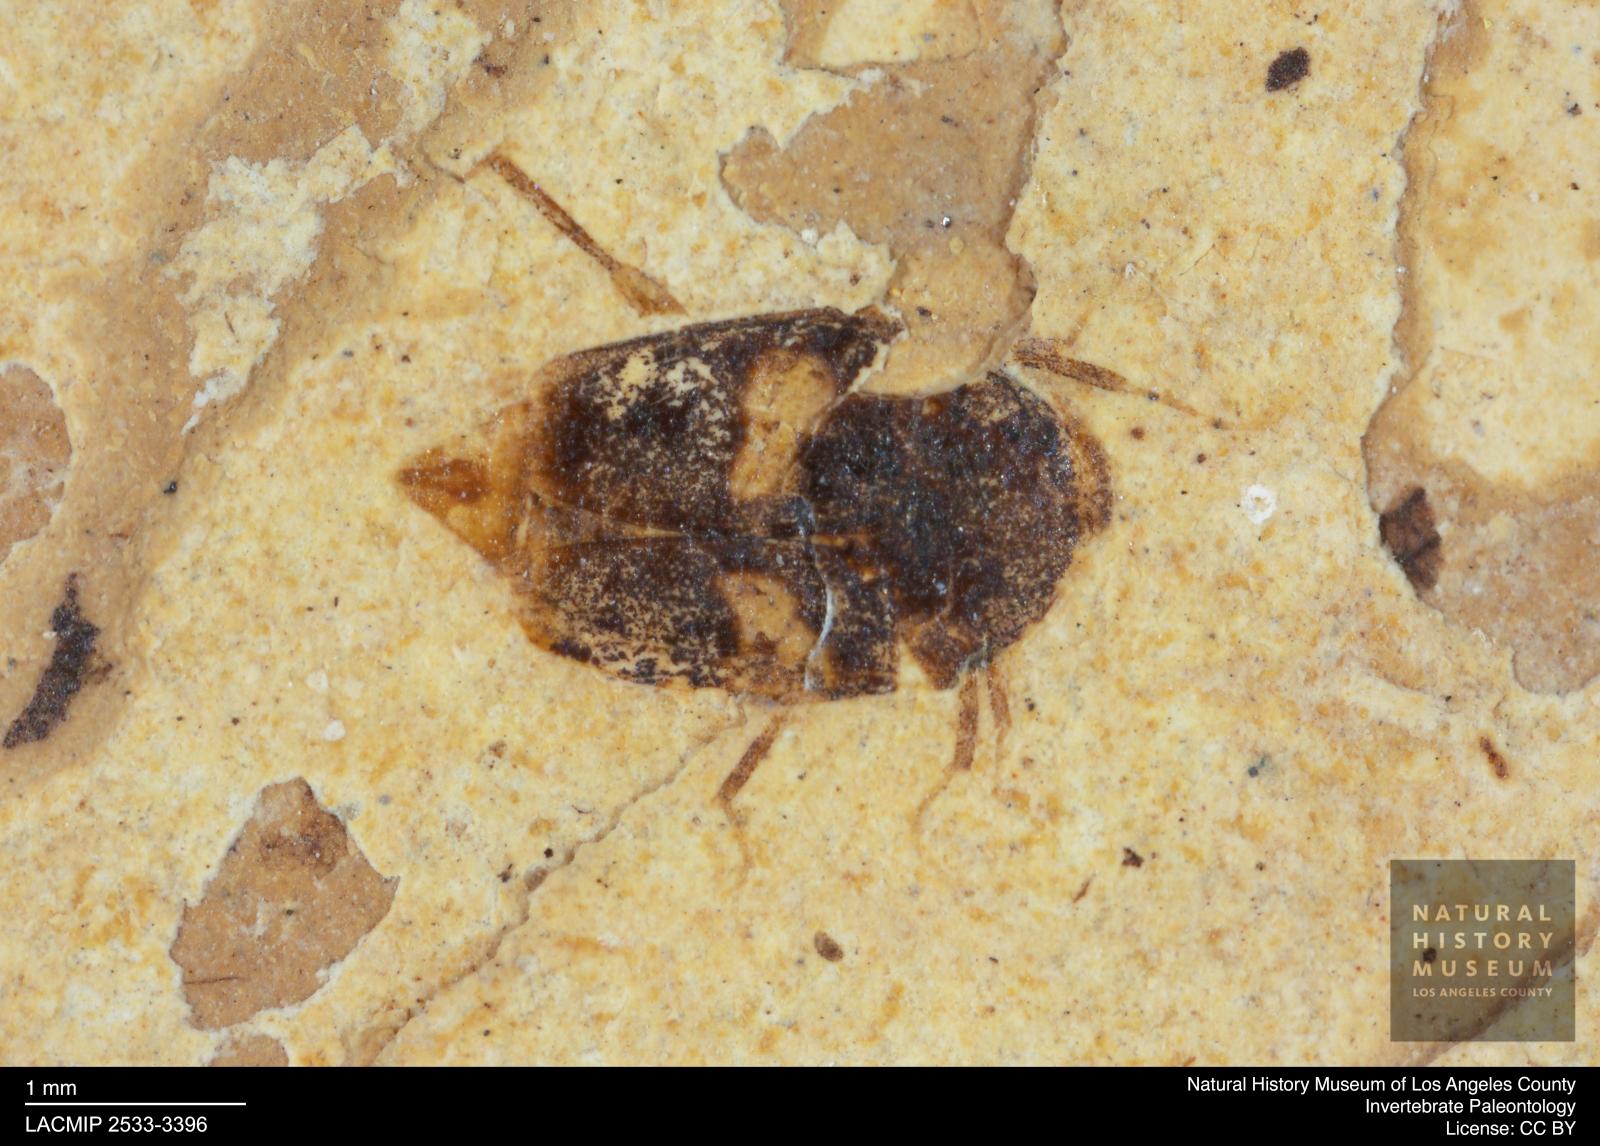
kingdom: Animalia
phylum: Arthropoda
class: Insecta
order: Coleoptera
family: Staphylinidae
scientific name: Staphylinidae
